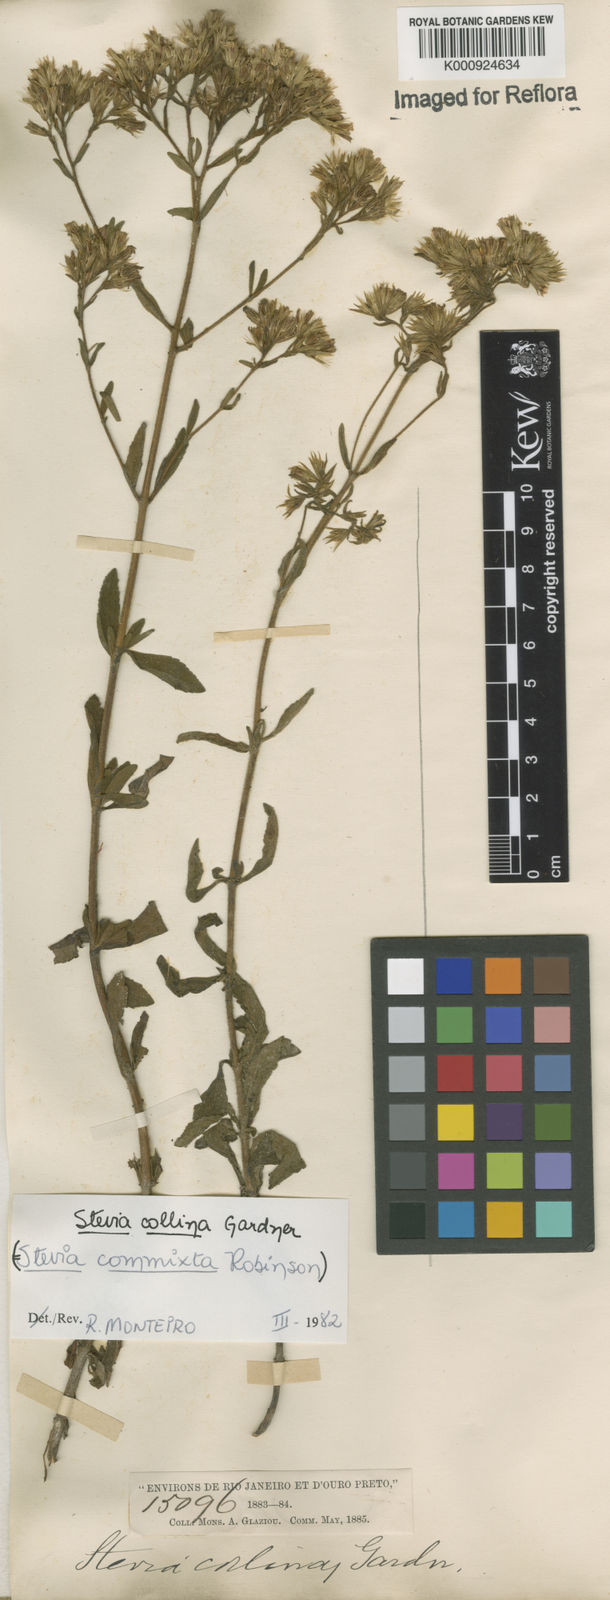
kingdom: Plantae
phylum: Tracheophyta
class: Magnoliopsida
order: Asterales
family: Asteraceae
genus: Stevia
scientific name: Stevia collina
